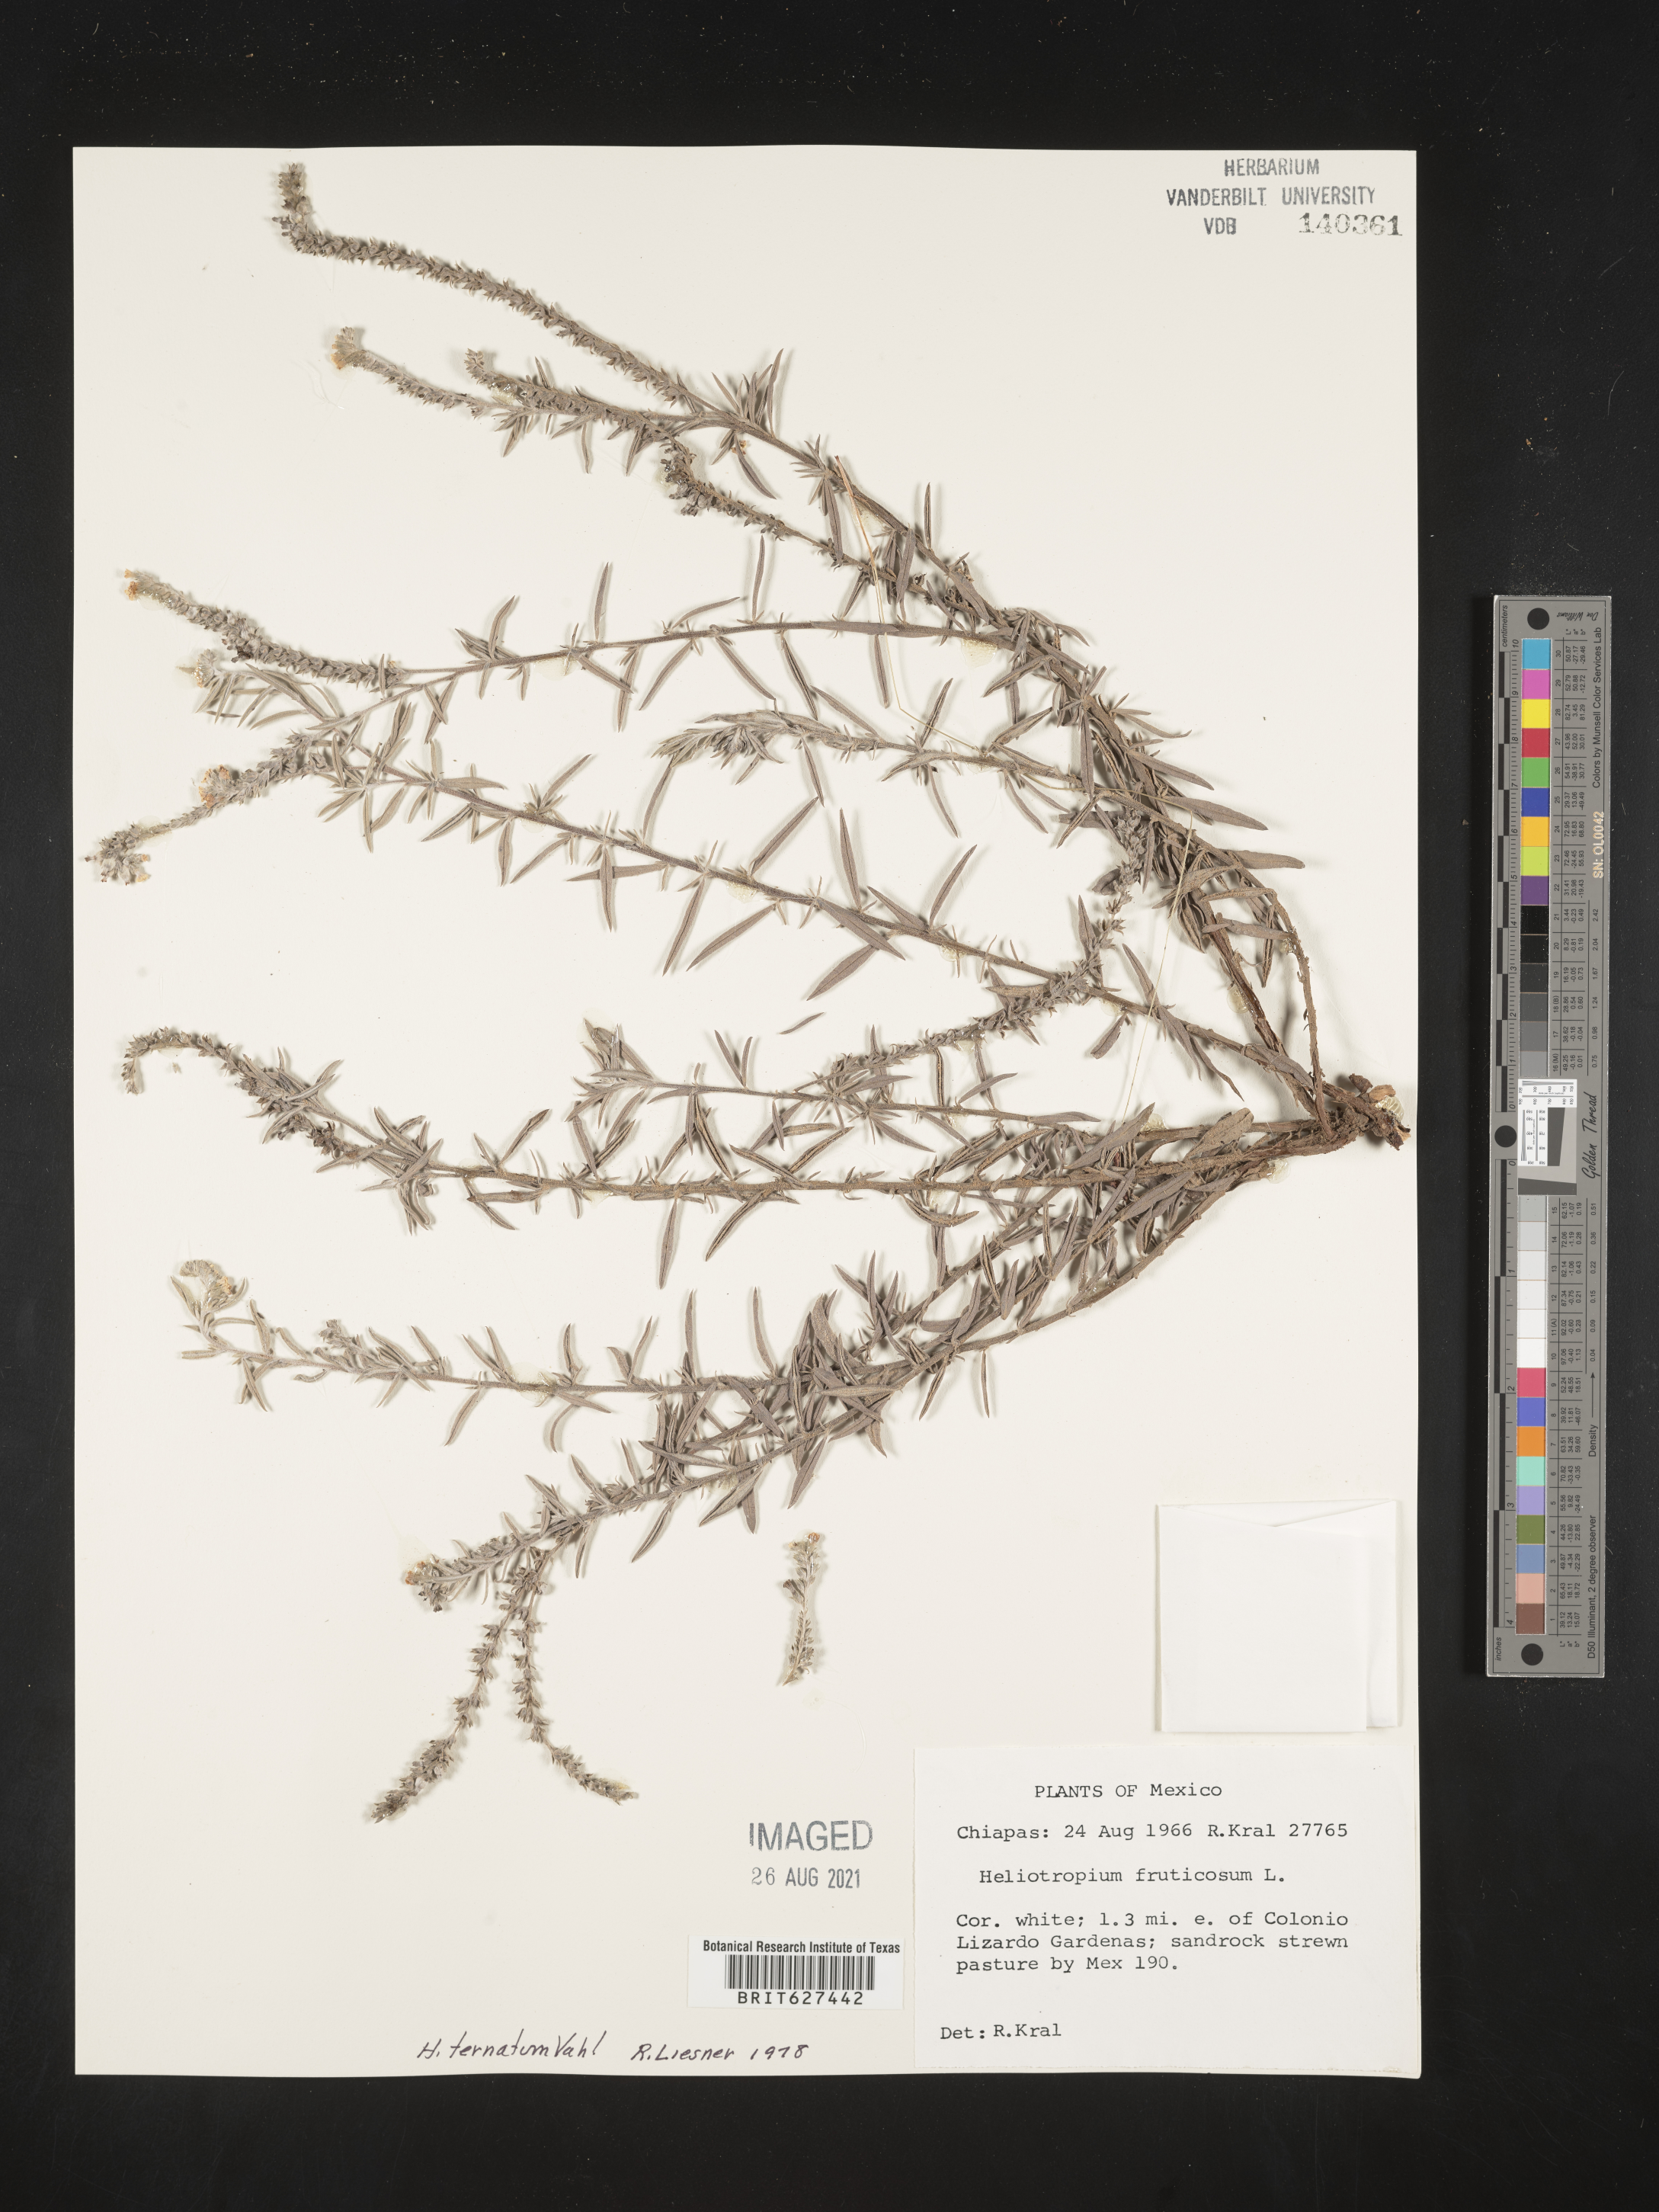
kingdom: Plantae
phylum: Tracheophyta
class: Magnoliopsida
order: Boraginales
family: Heliotropiaceae
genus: Heliotropium
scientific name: Heliotropium
